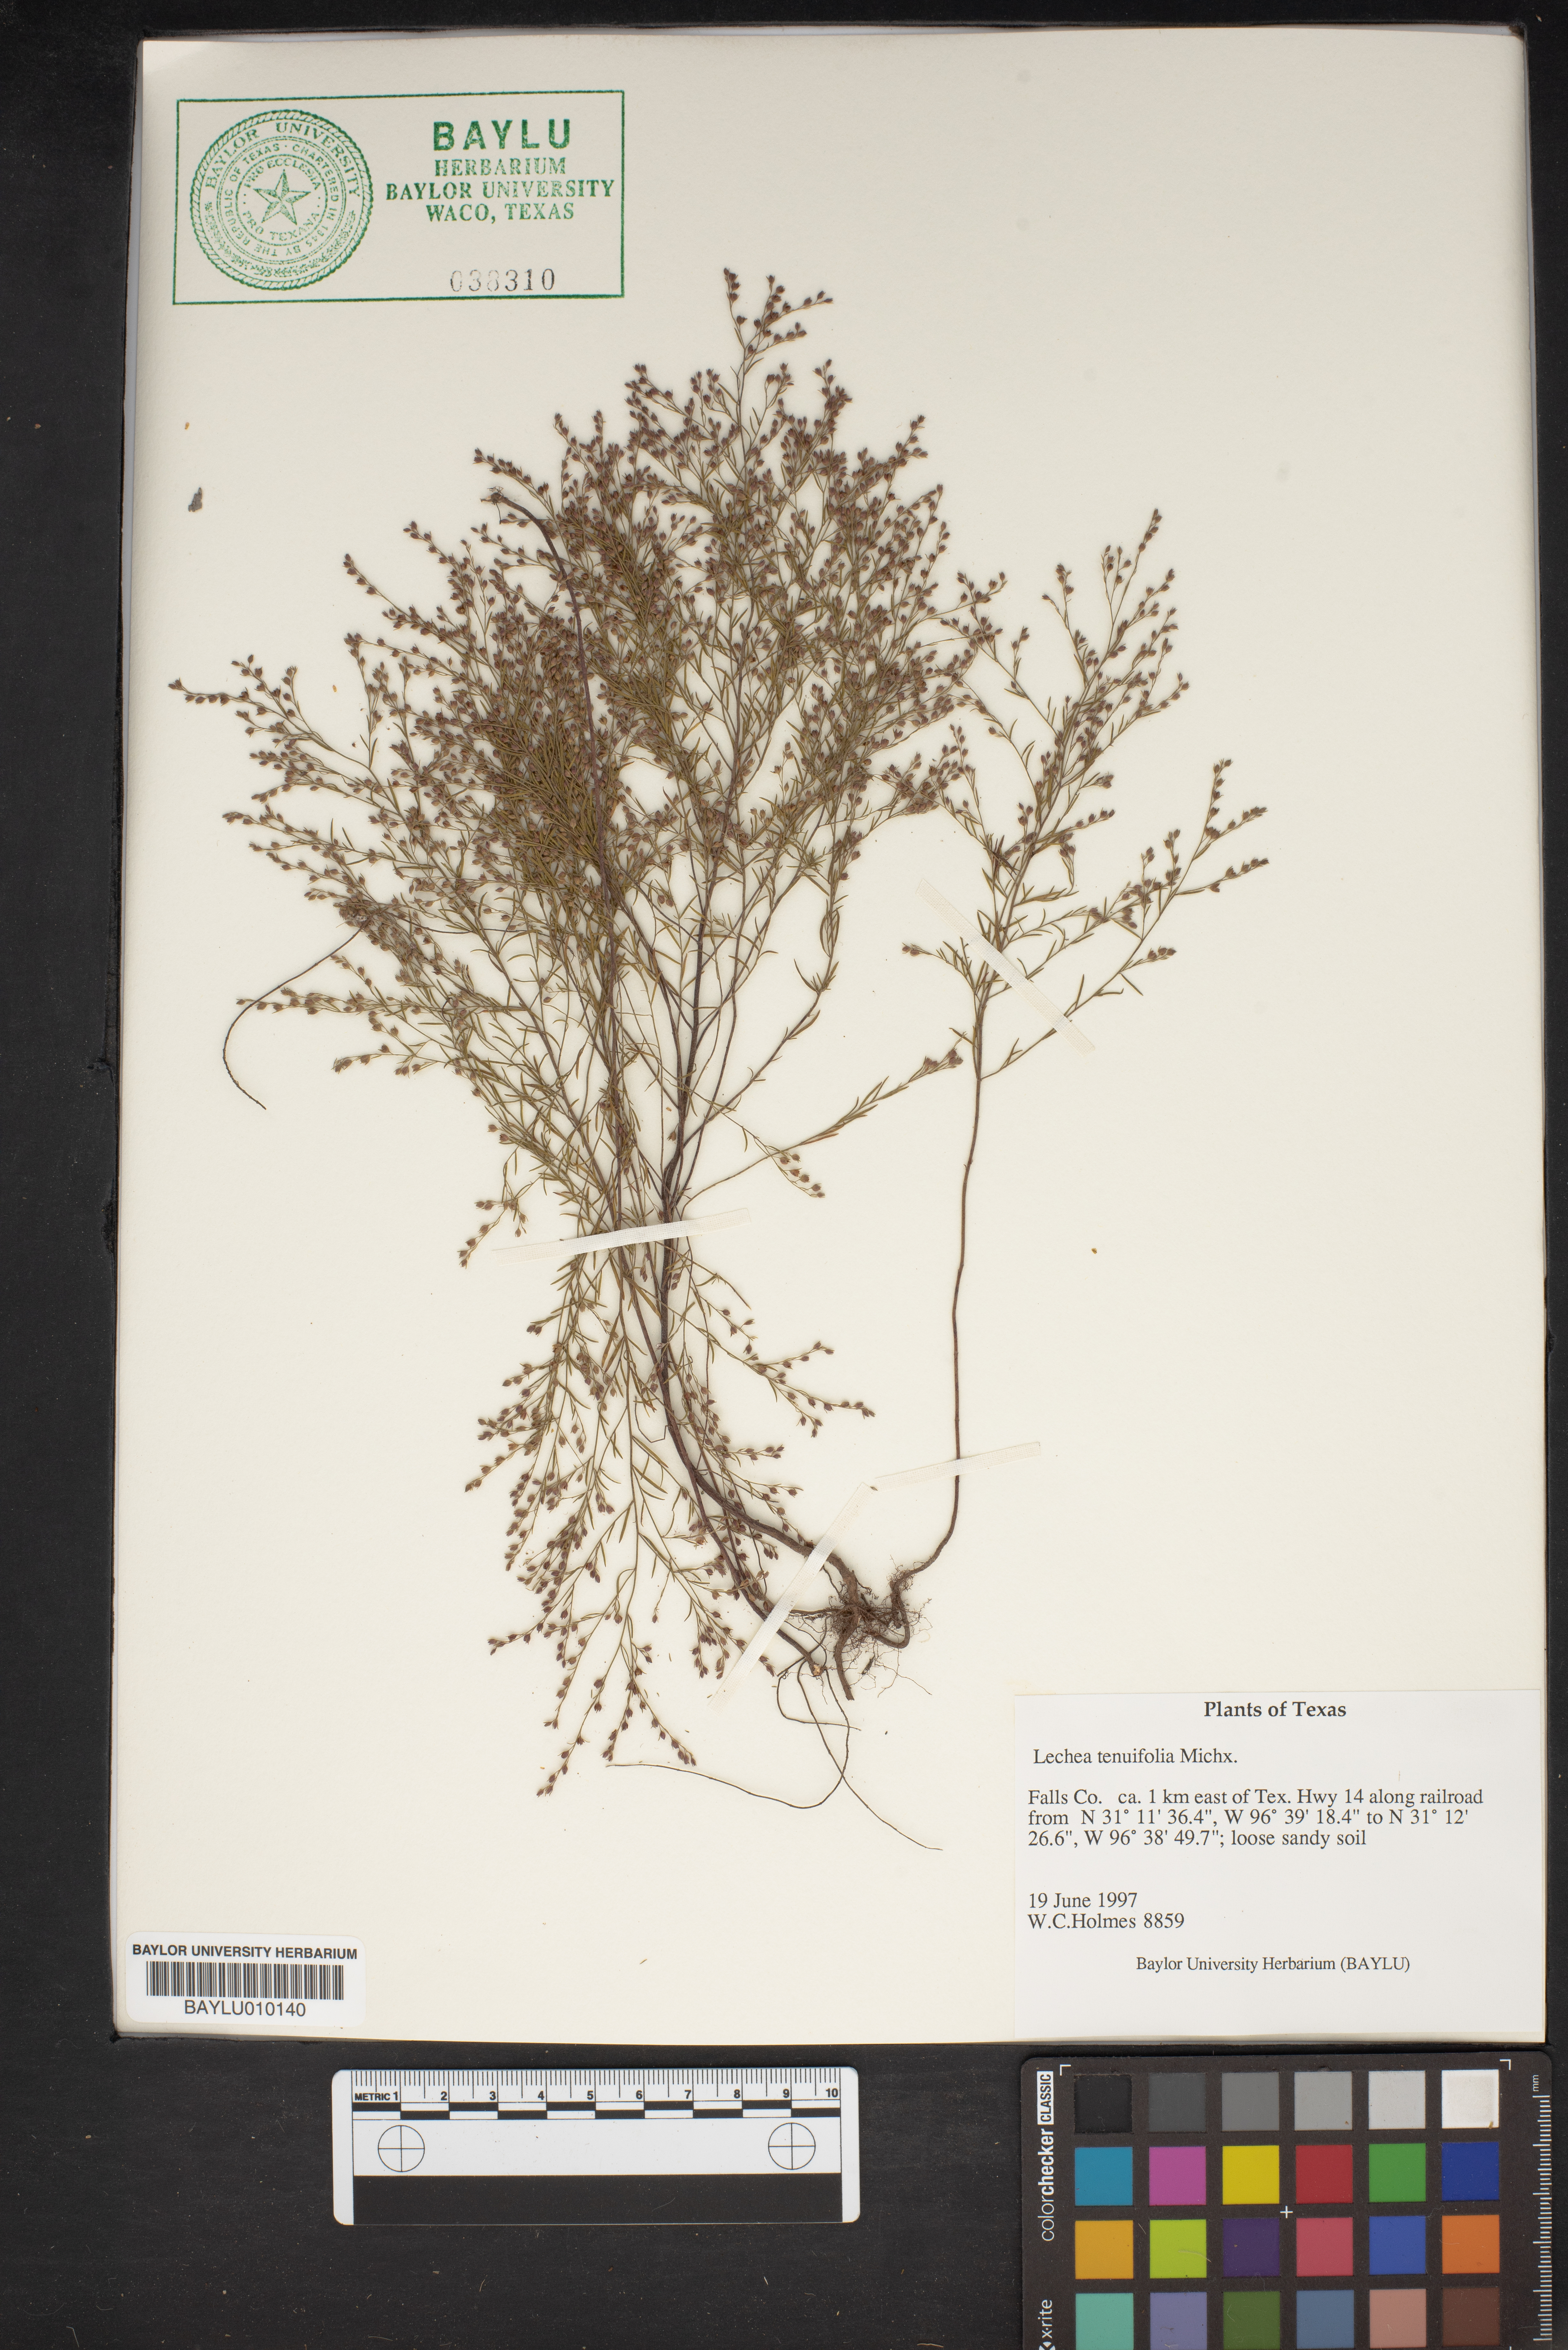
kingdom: Plantae
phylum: Tracheophyta
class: Magnoliopsida
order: Malvales
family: Cistaceae
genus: Lechea
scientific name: Lechea tenuifolia
